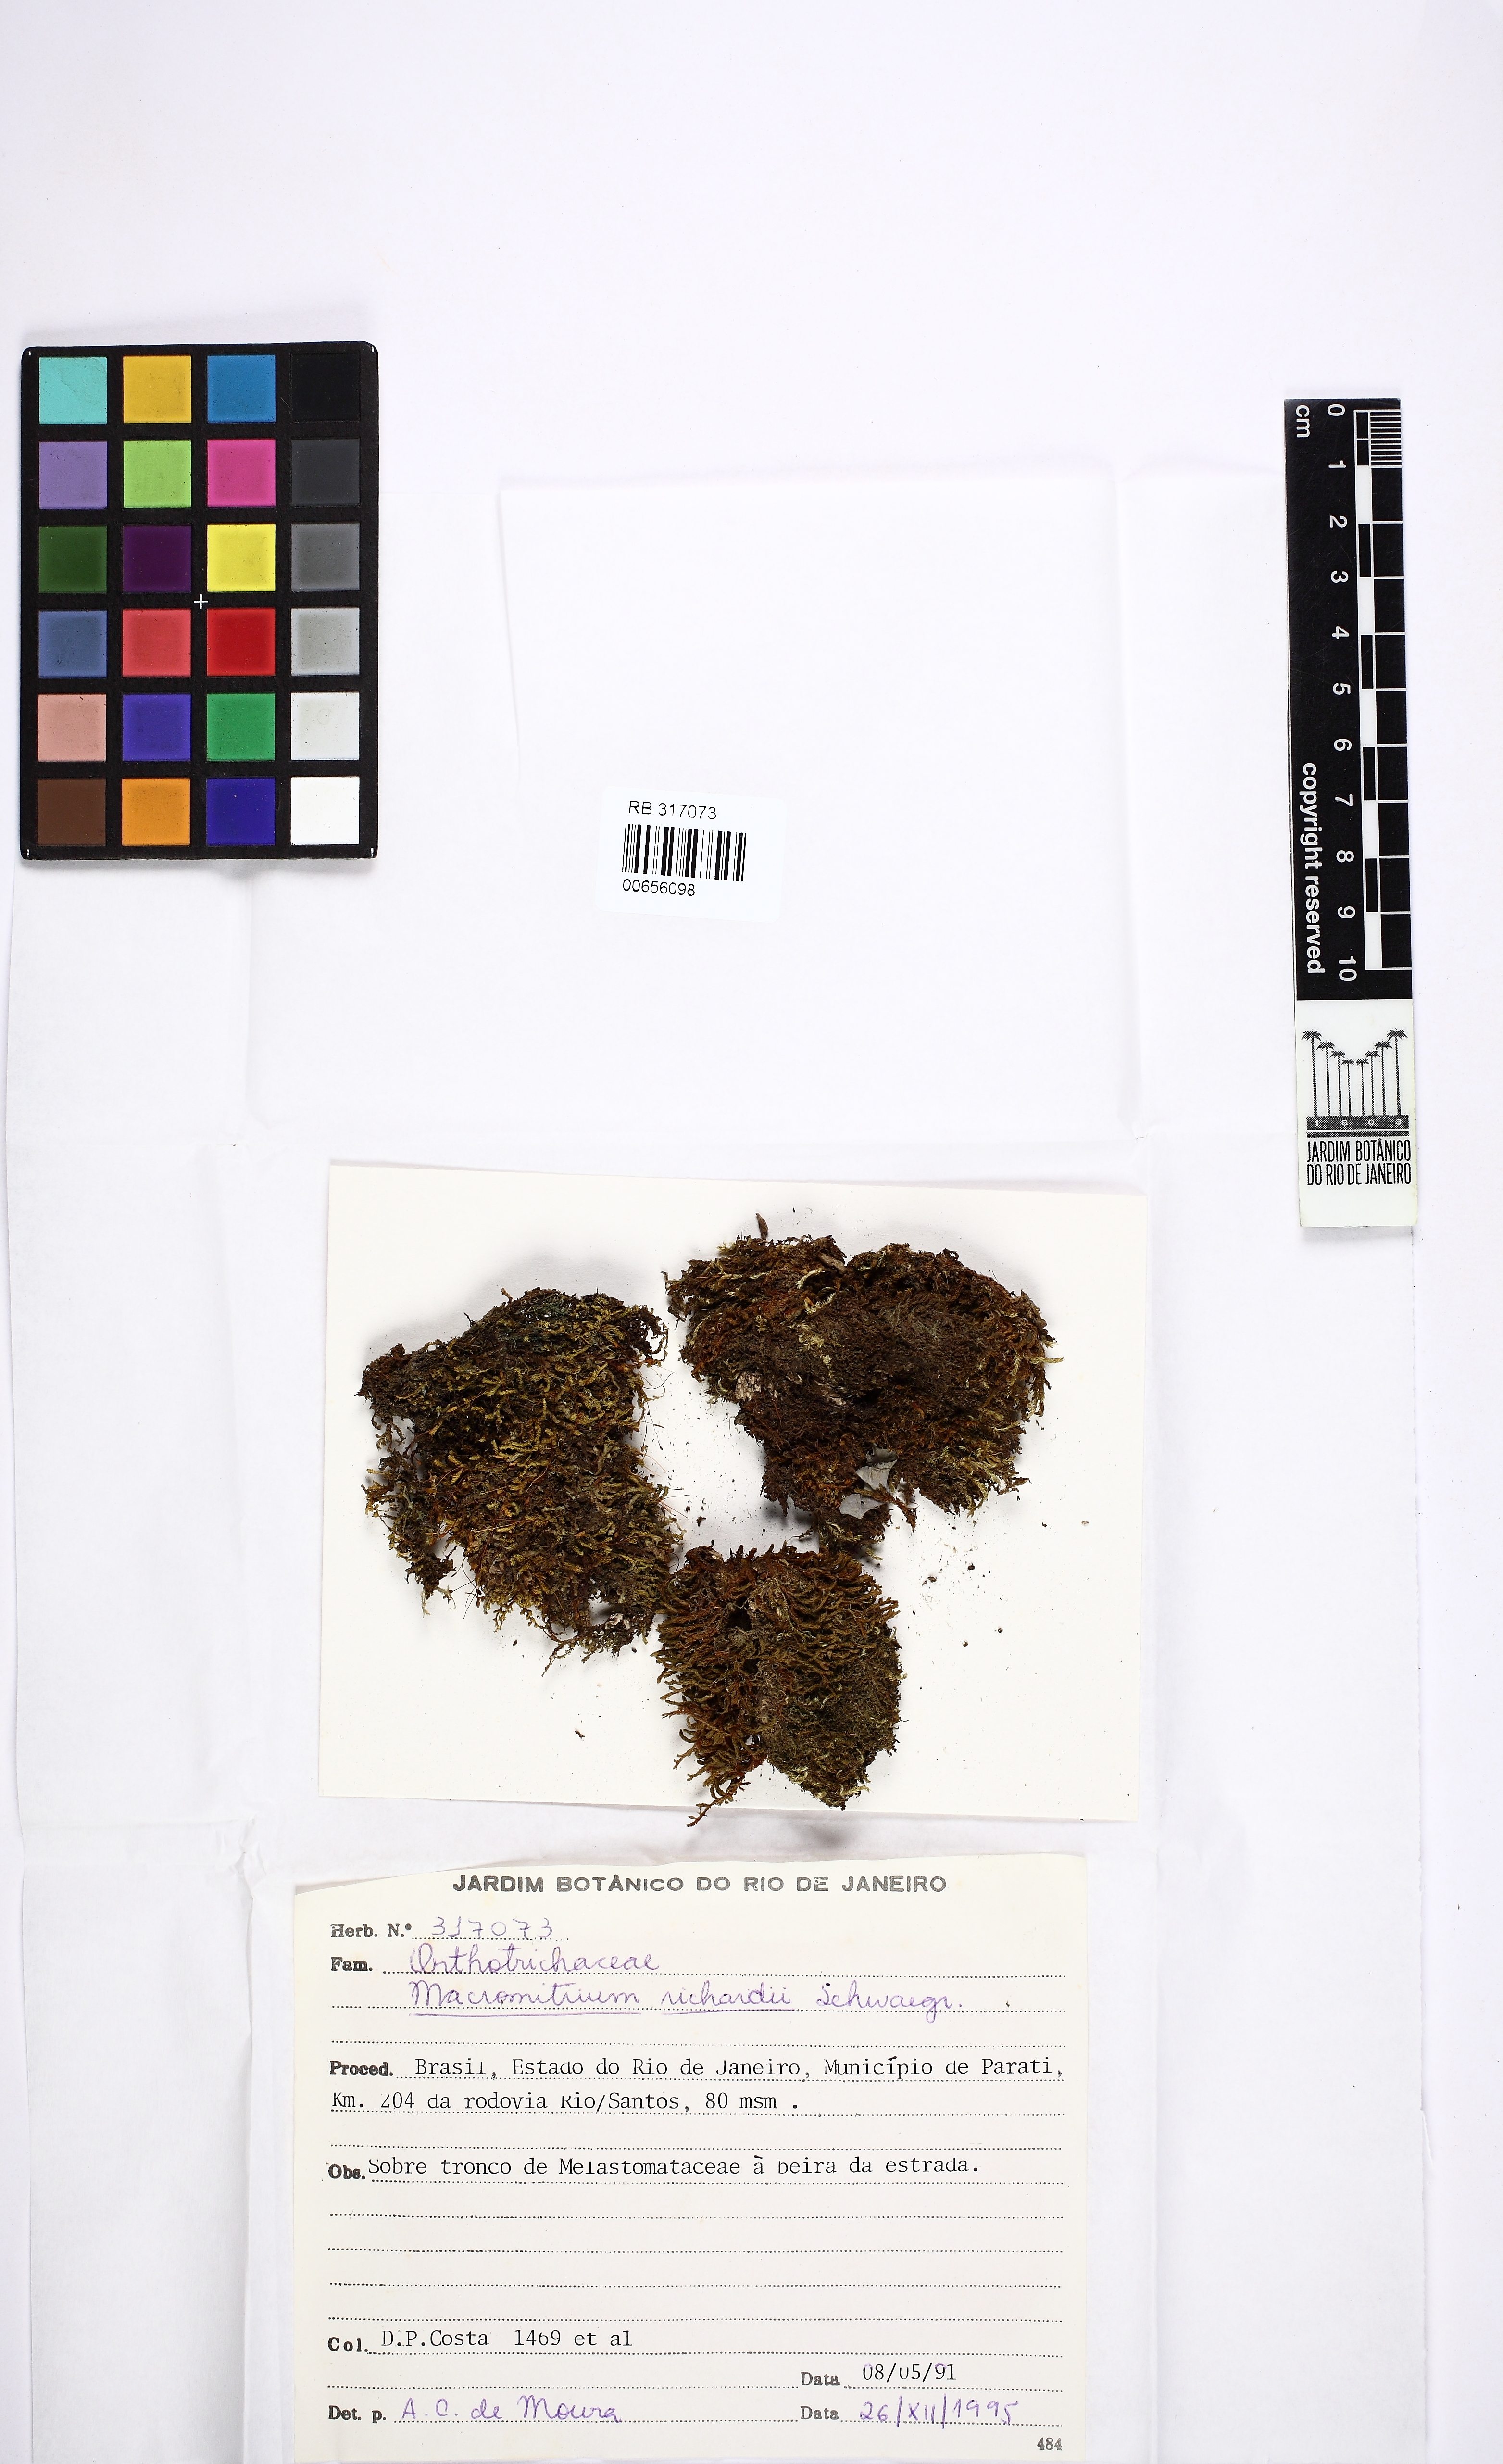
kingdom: Plantae
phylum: Bryophyta
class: Bryopsida
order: Orthotrichales
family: Orthotrichaceae
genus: Macromitrium
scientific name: Macromitrium viticulosum
